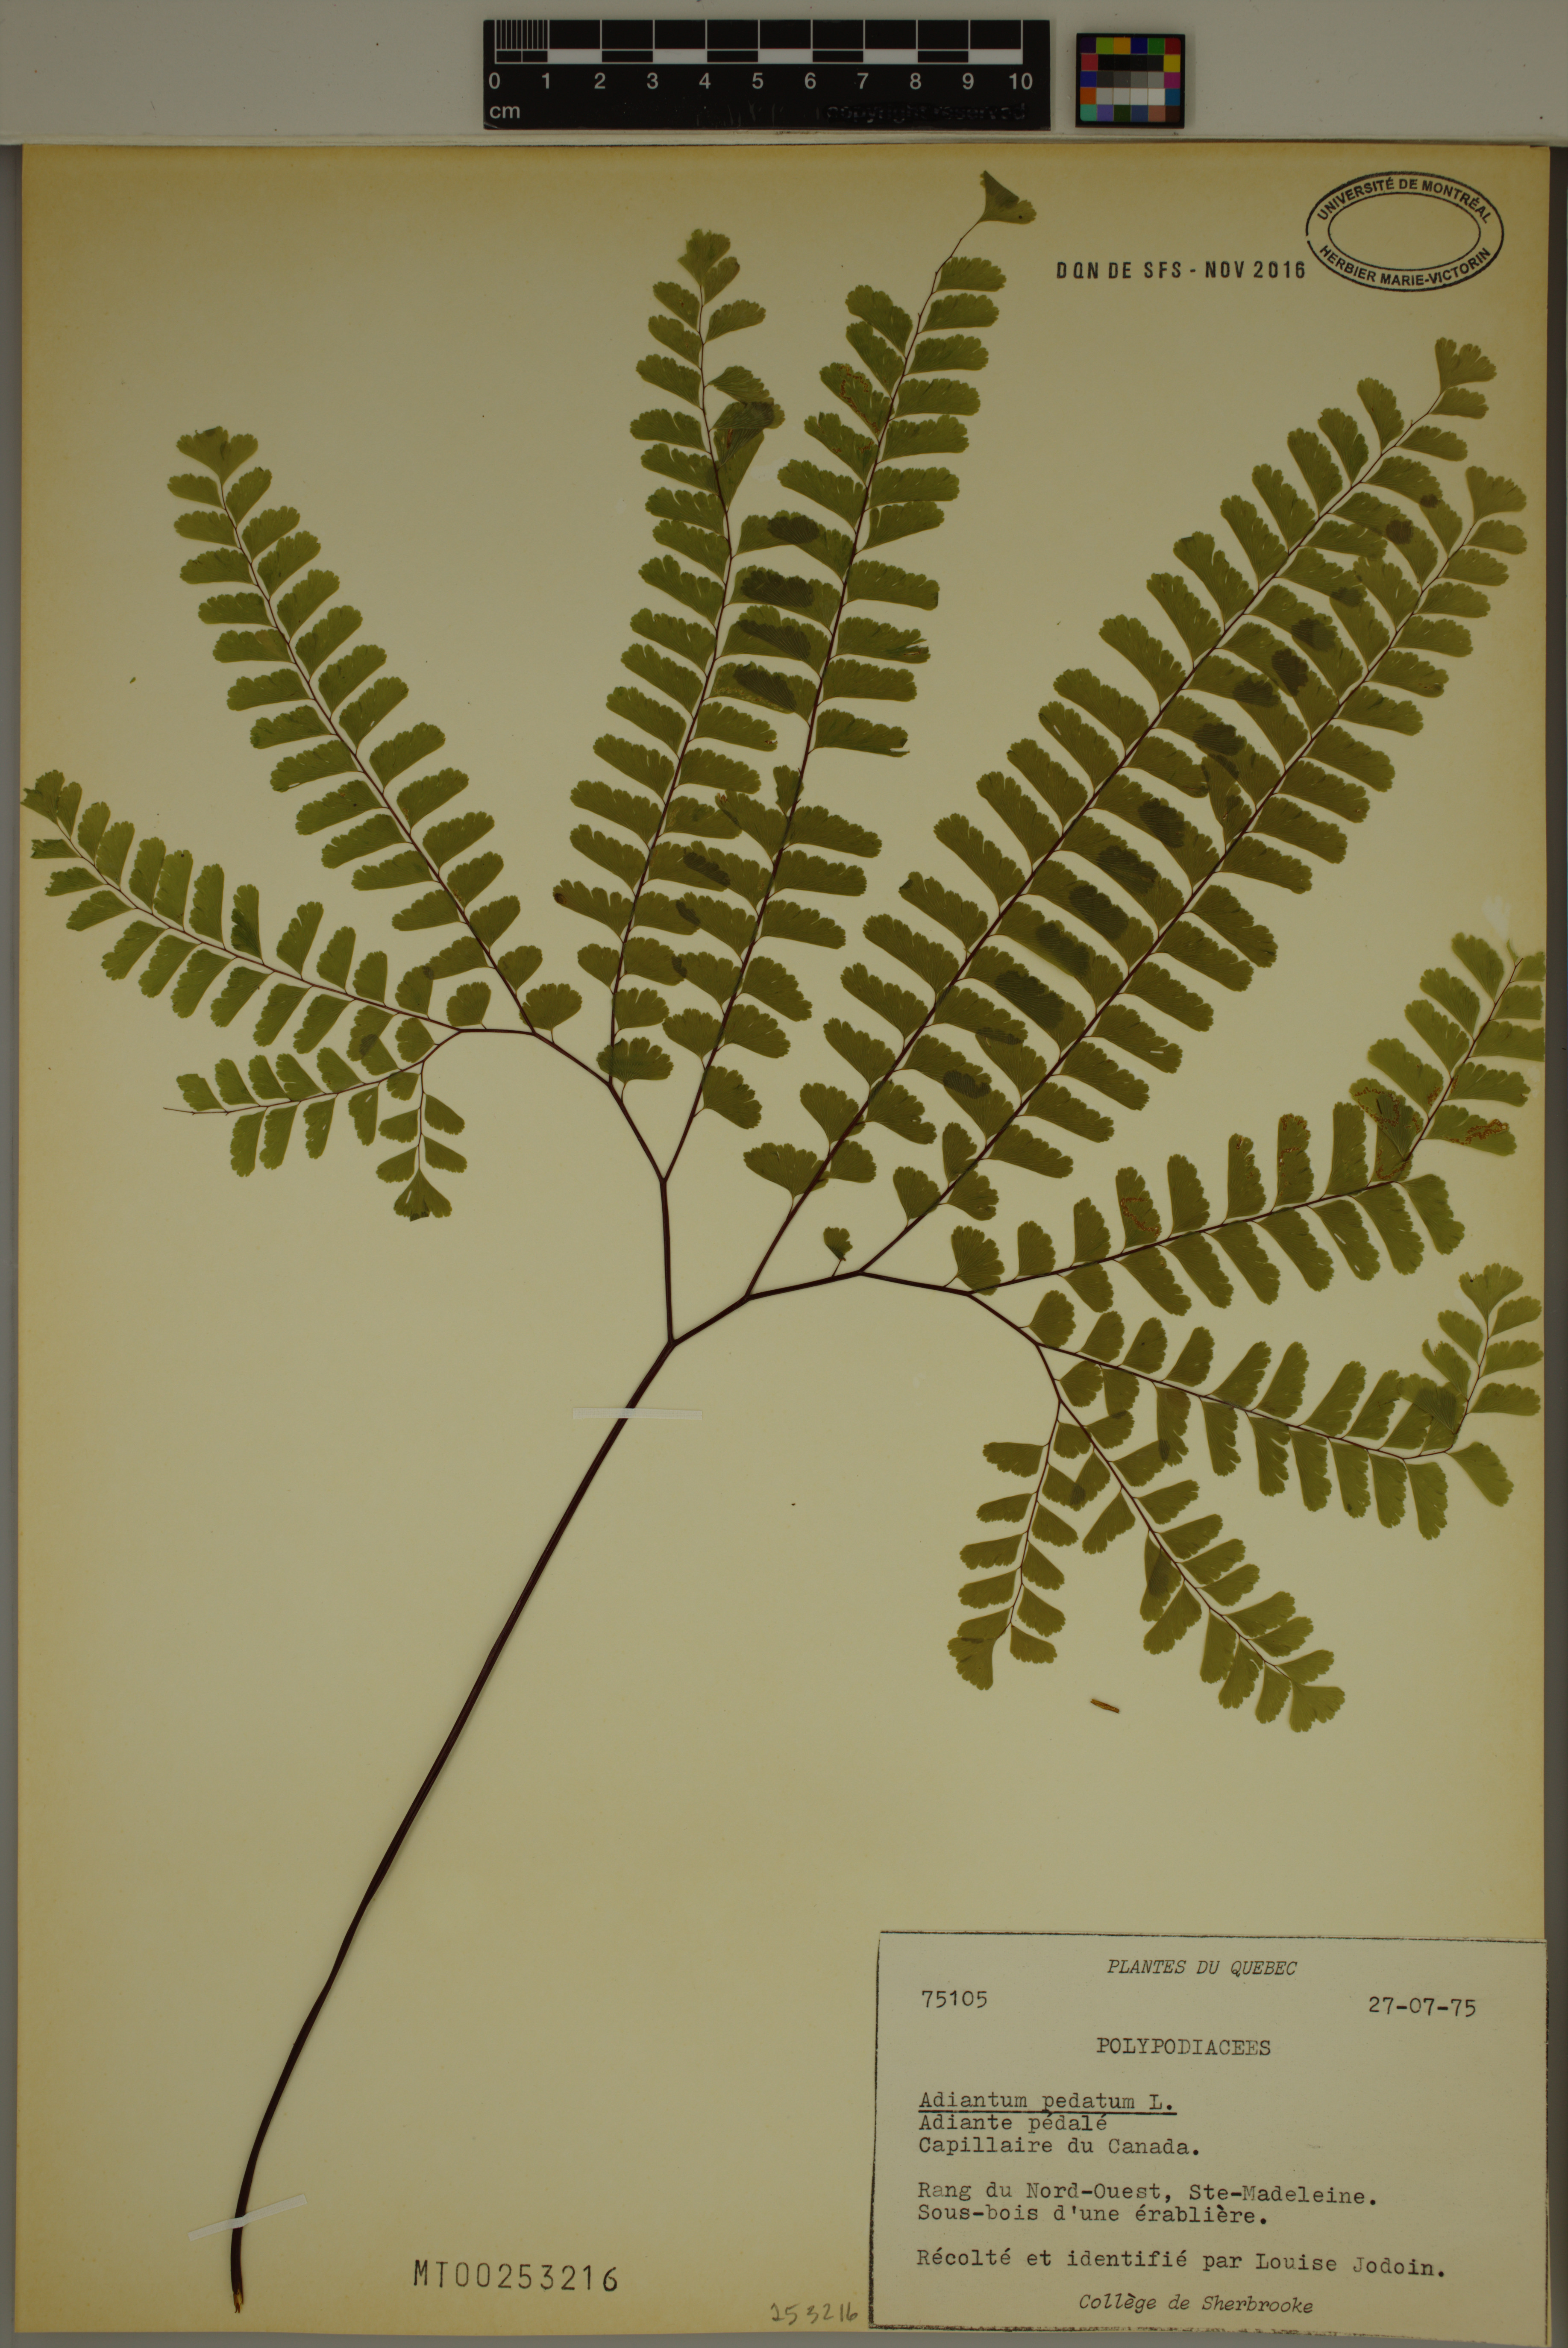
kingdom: Plantae
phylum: Tracheophyta
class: Polypodiopsida
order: Polypodiales
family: Pteridaceae
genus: Adiantum
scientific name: Adiantum pedatum
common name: Five-finger fern
